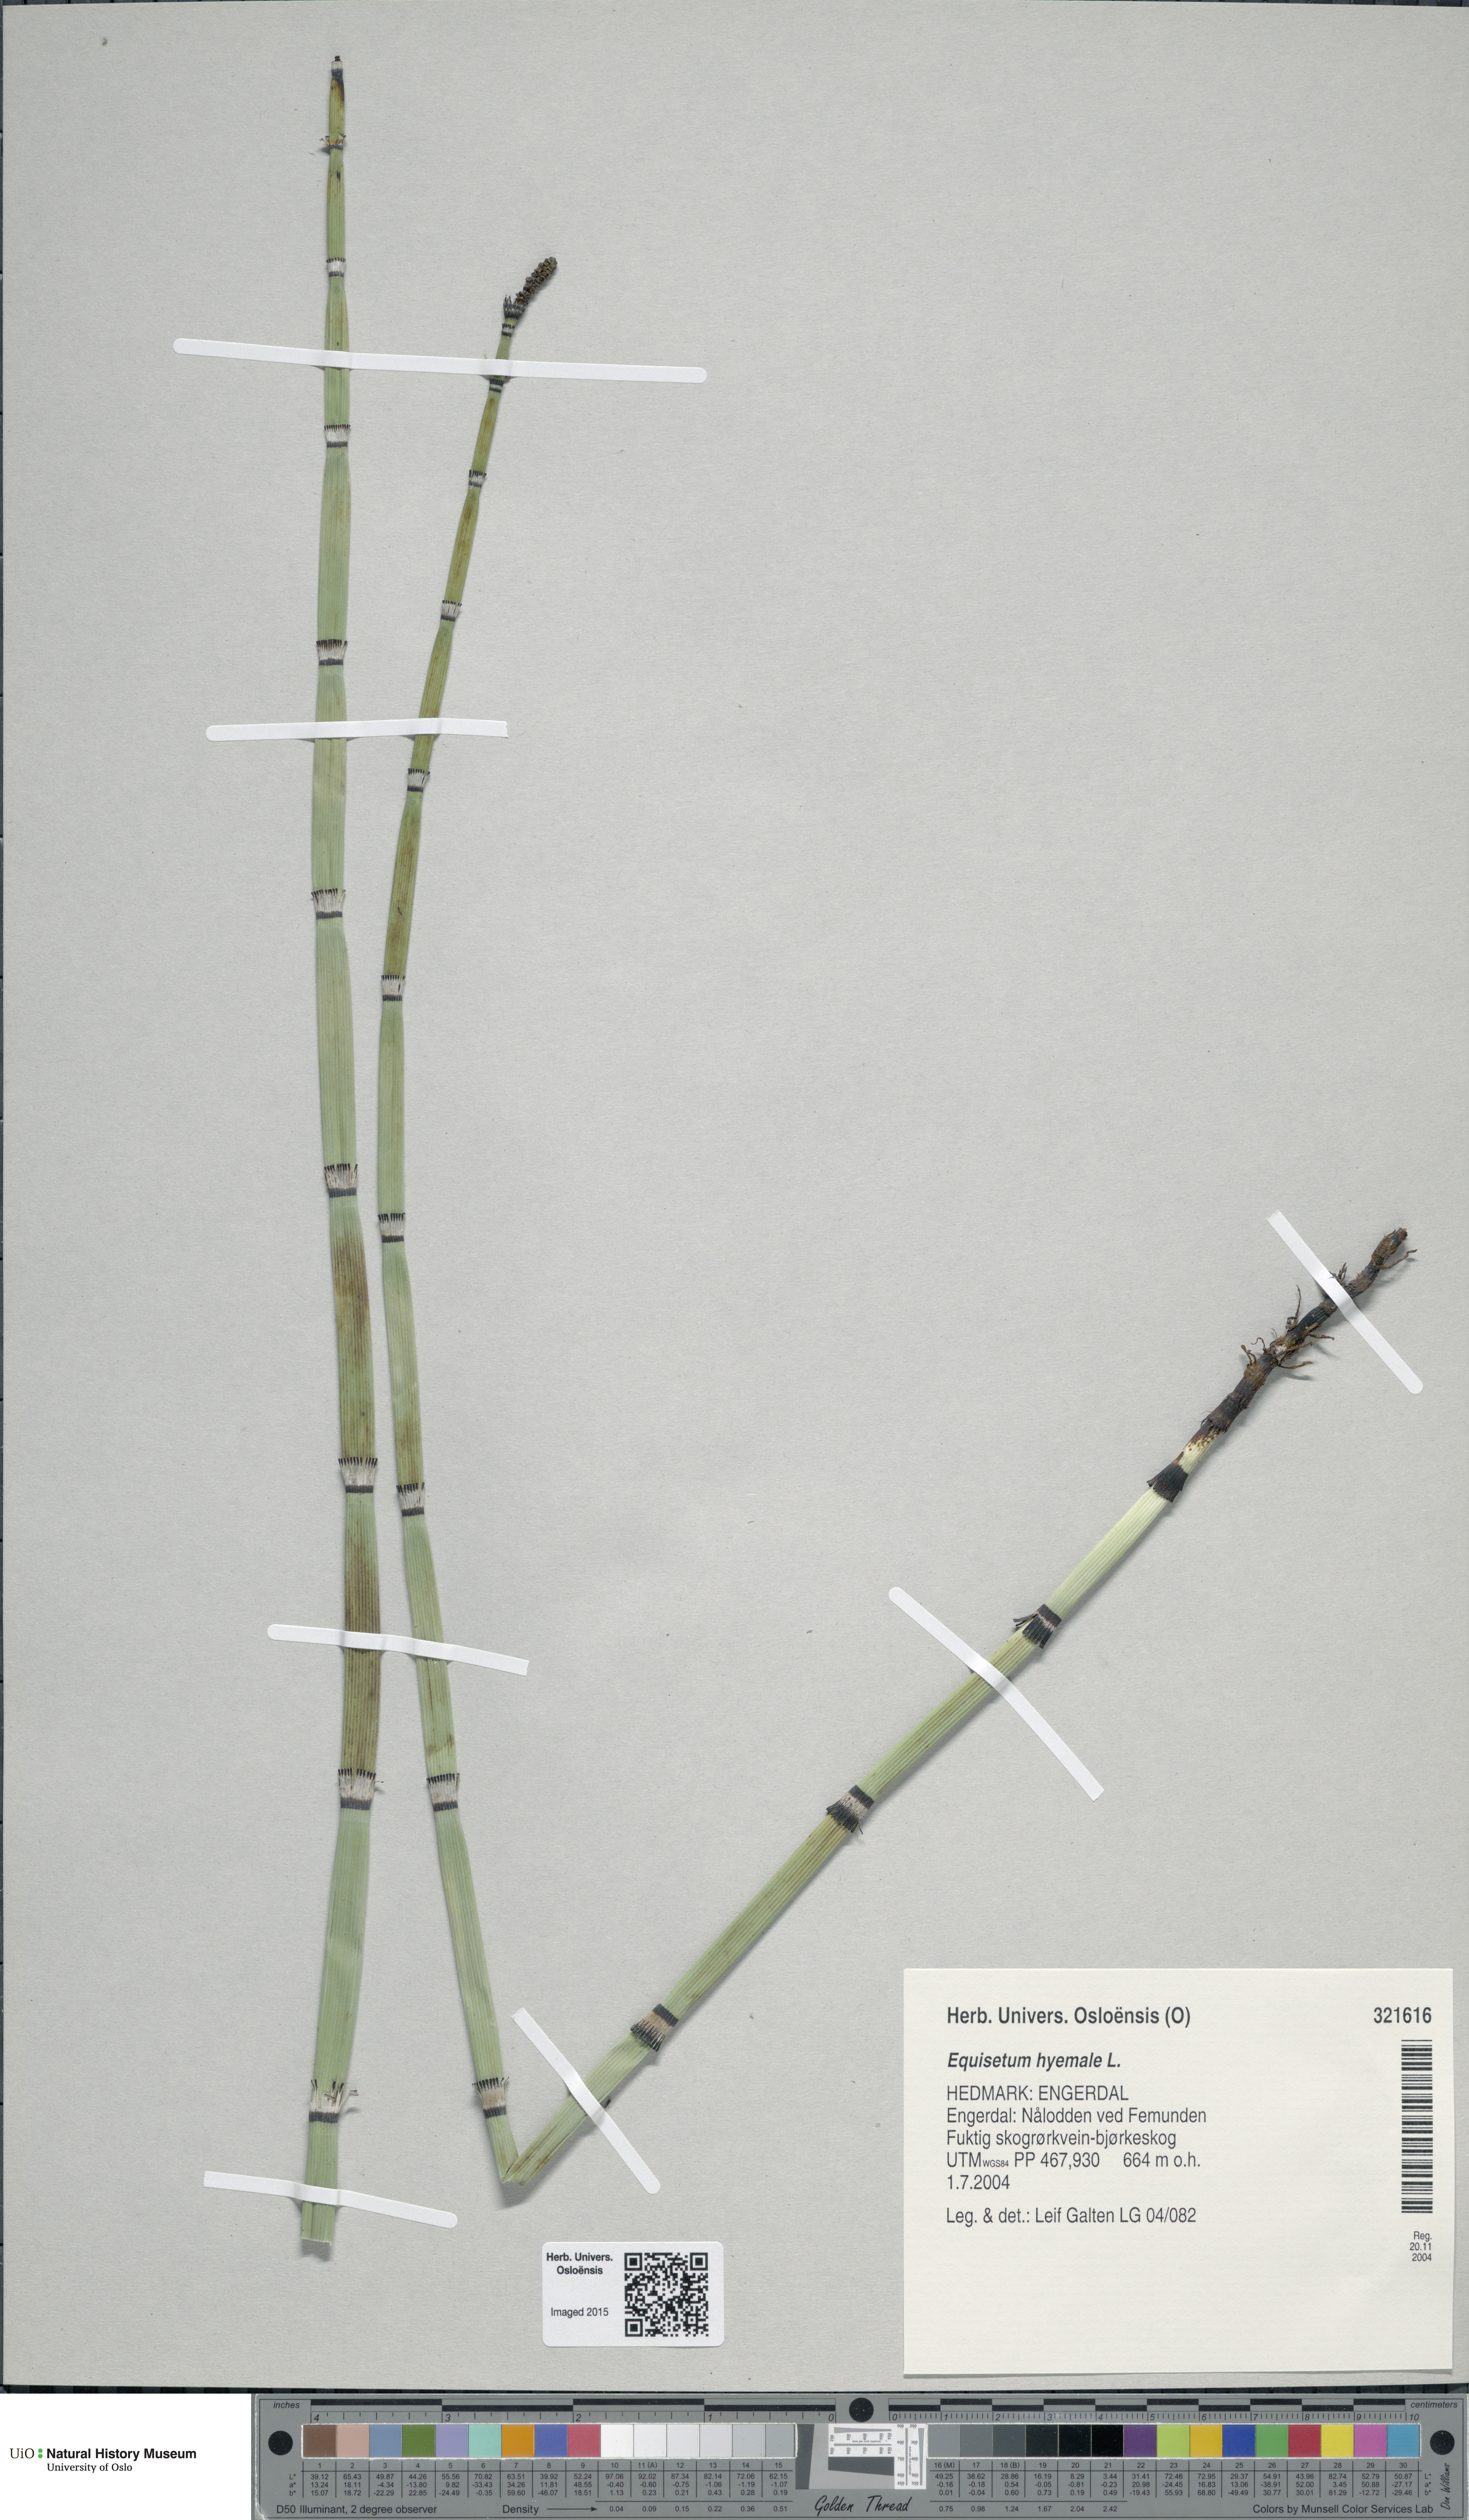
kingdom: Plantae
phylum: Tracheophyta
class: Polypodiopsida
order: Equisetales
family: Equisetaceae
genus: Equisetum
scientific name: Equisetum hyemale
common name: Rough horsetail
